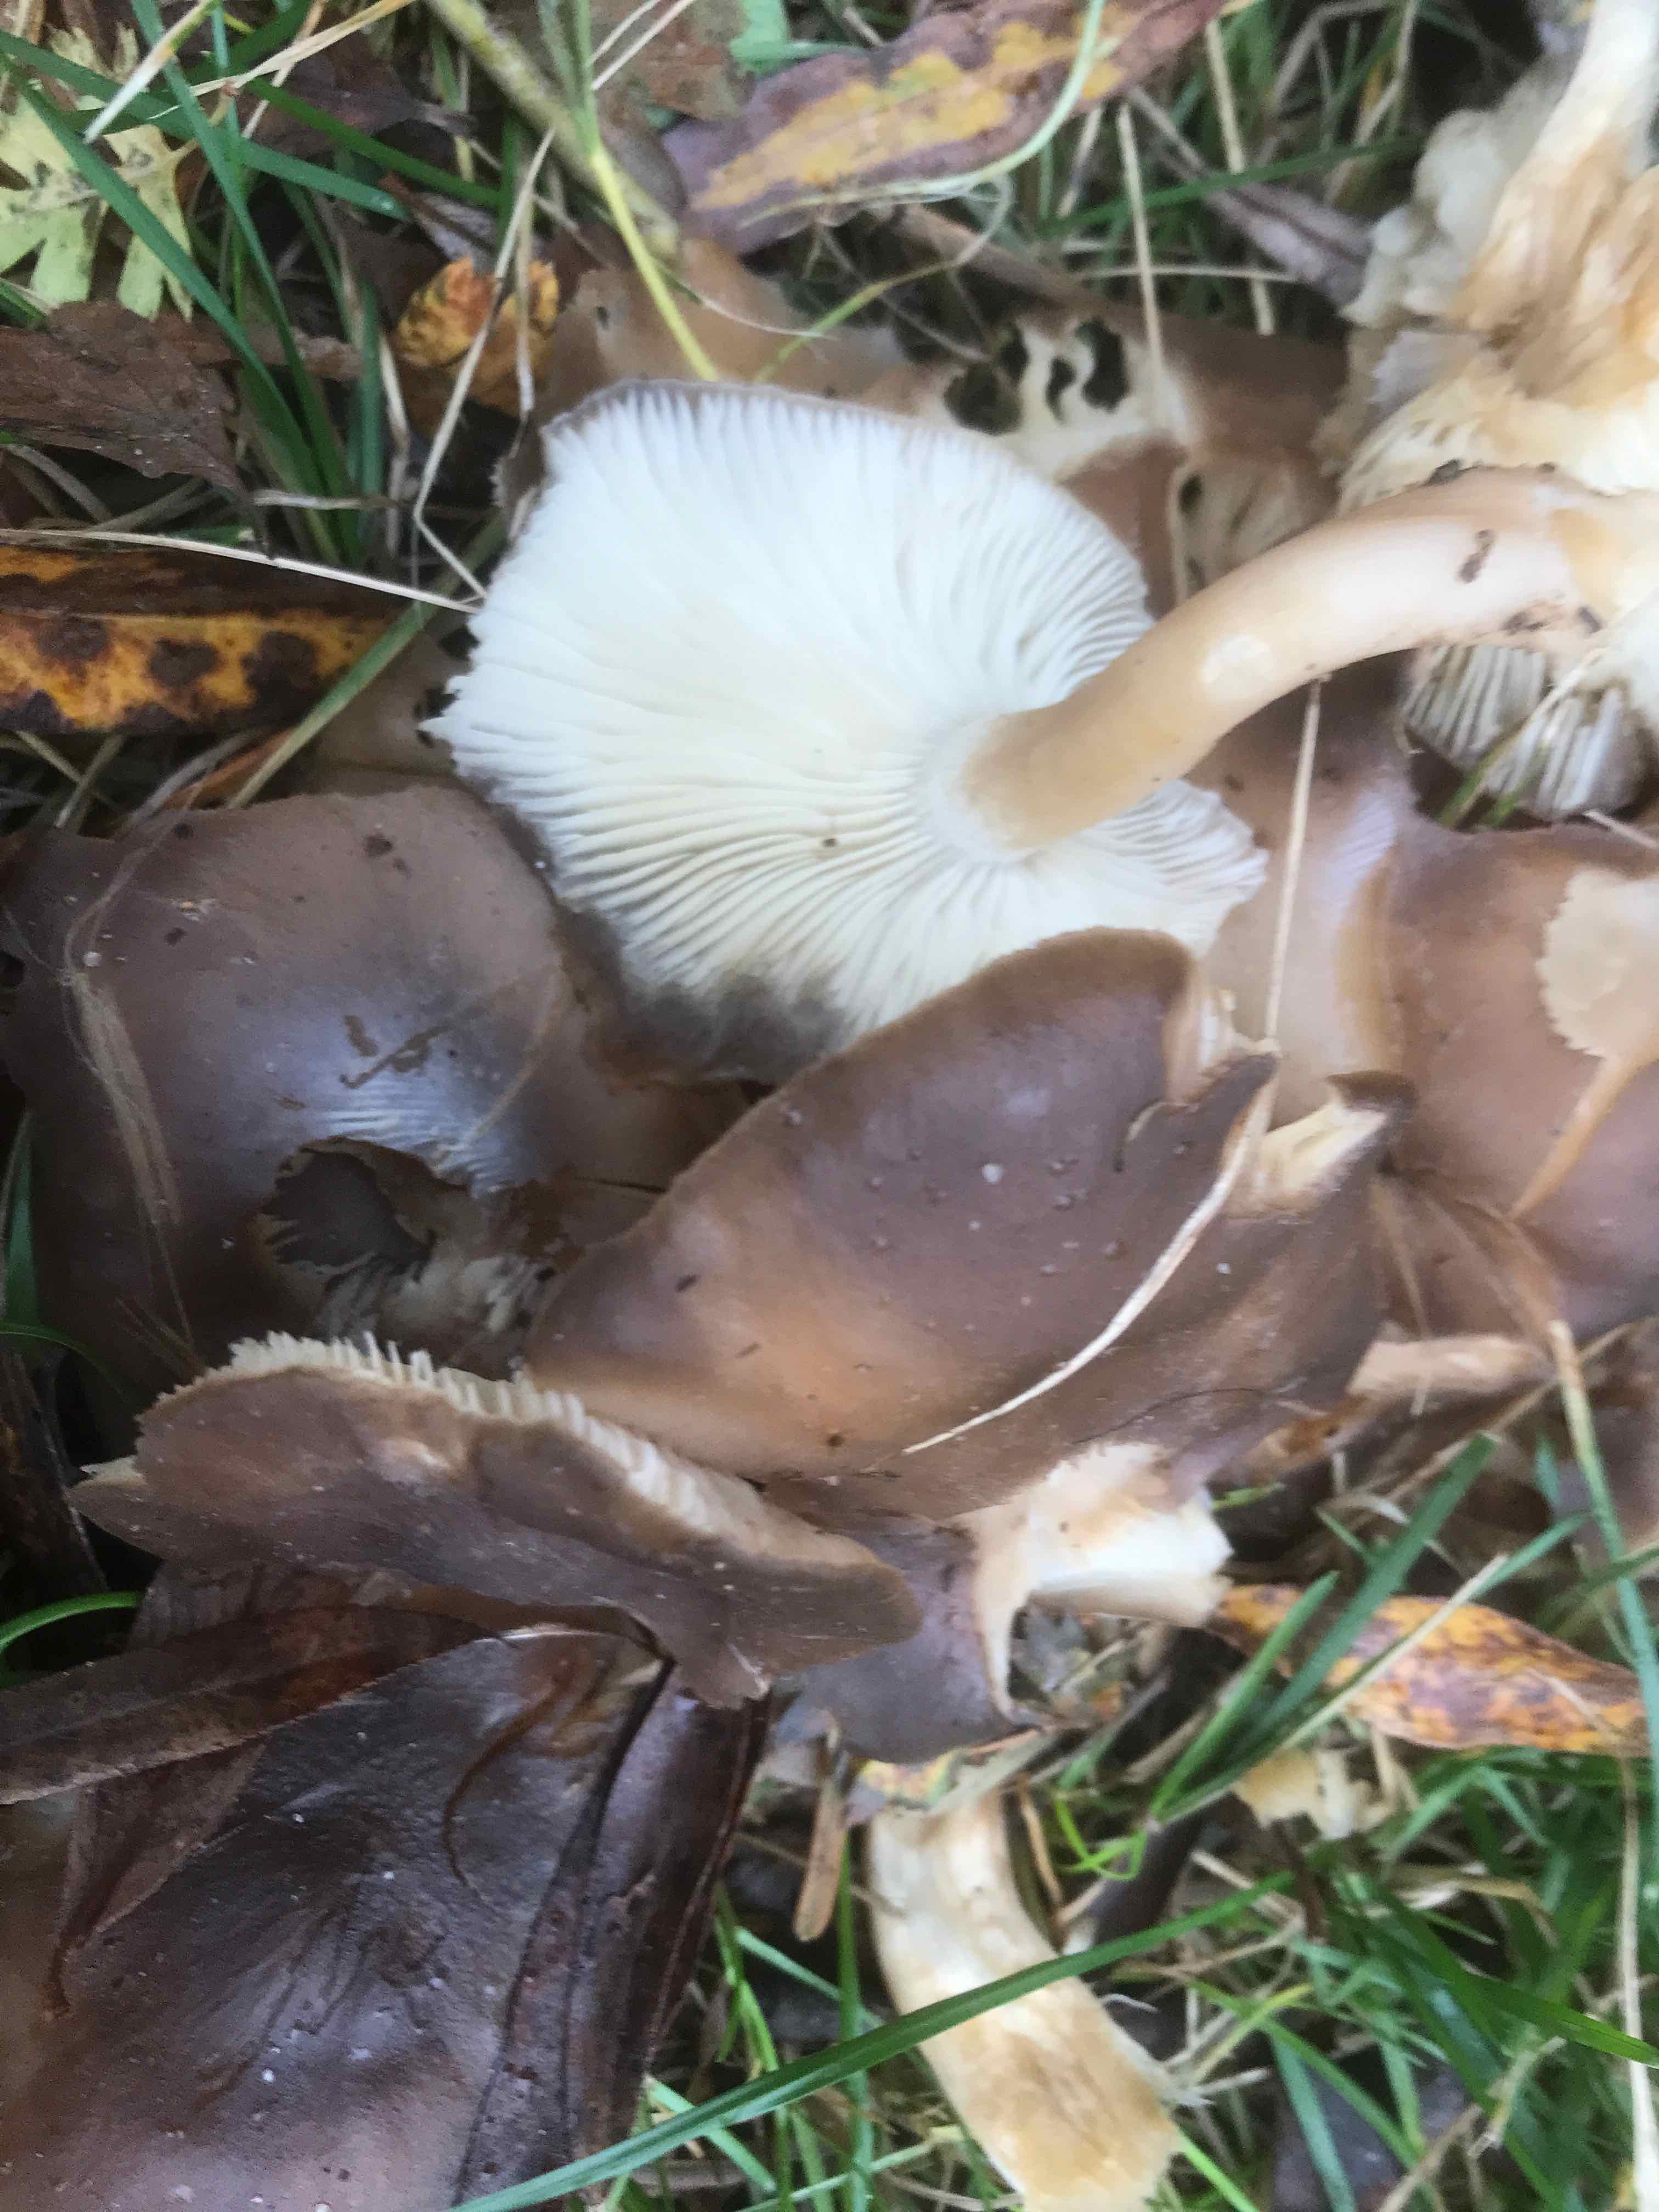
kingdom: Fungi
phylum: Basidiomycota
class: Agaricomycetes
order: Agaricales
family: Lyophyllaceae
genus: Lyophyllum
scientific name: Lyophyllum decastes
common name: Clustered domecap
